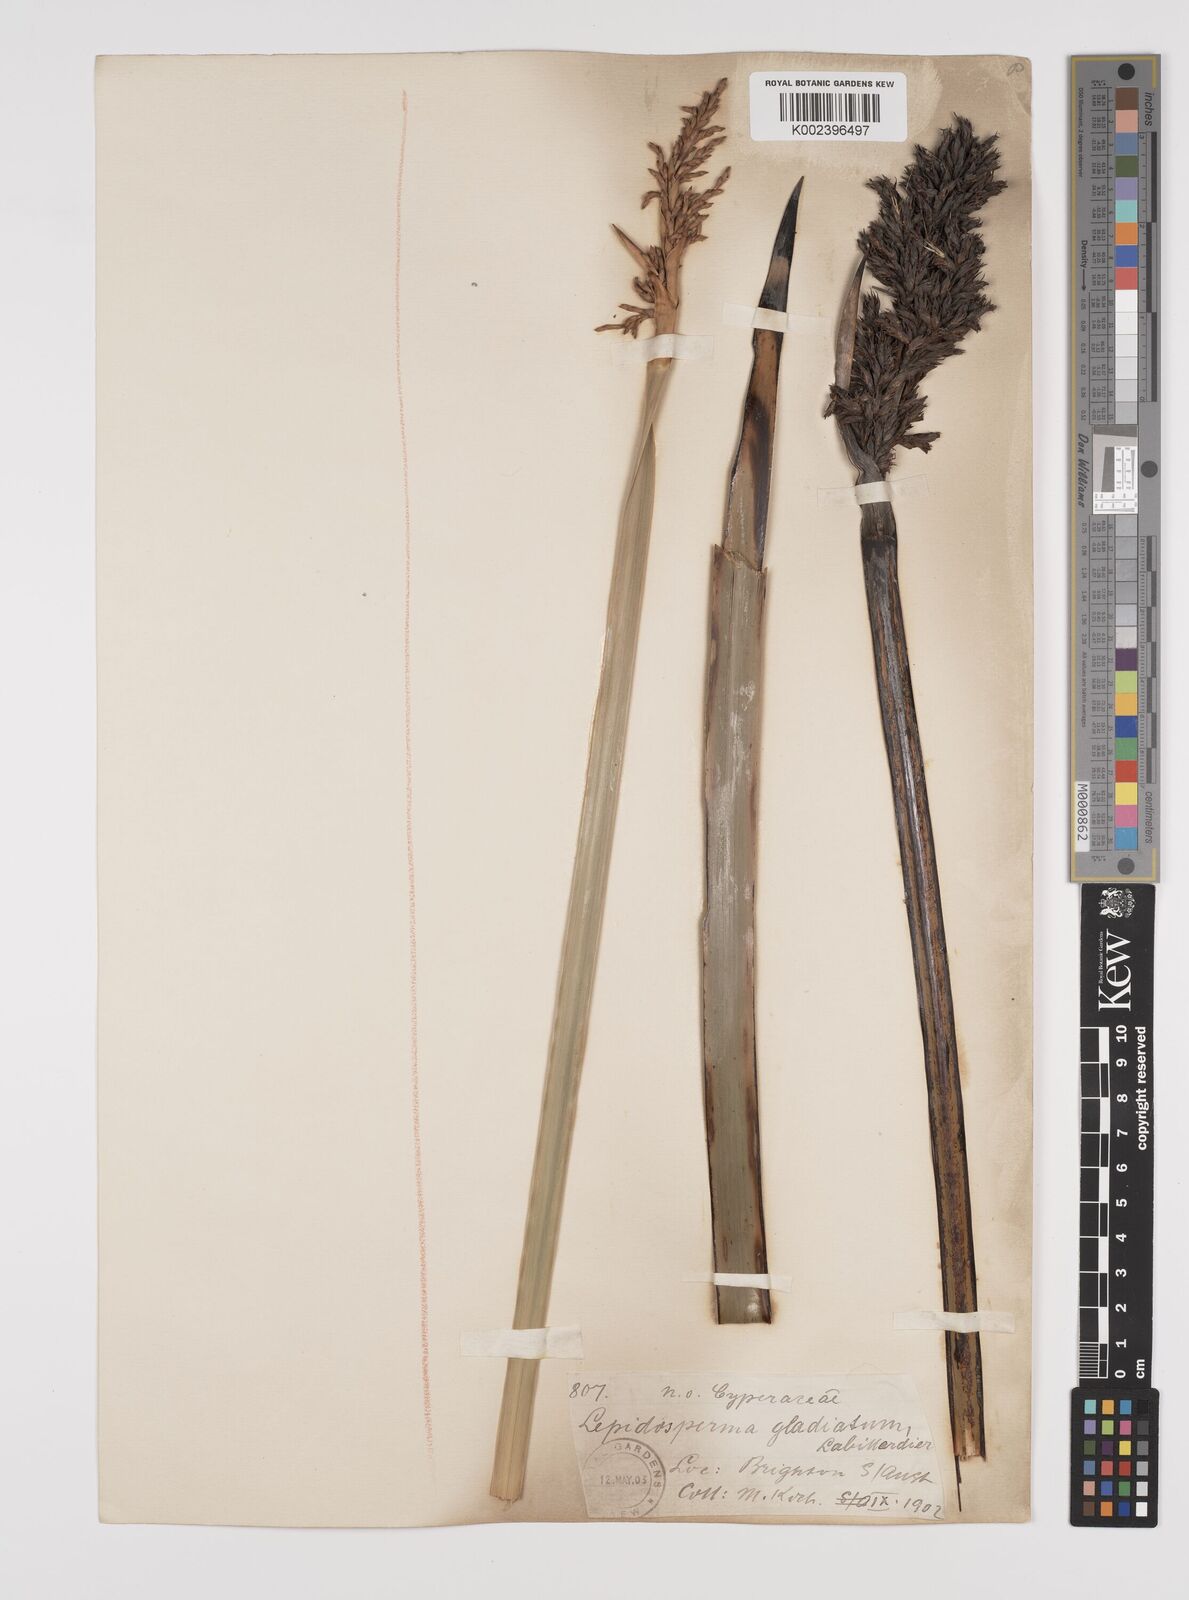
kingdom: Plantae
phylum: Tracheophyta
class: Liliopsida
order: Poales
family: Cyperaceae
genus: Lepidosperma
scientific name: Lepidosperma gladiatum
